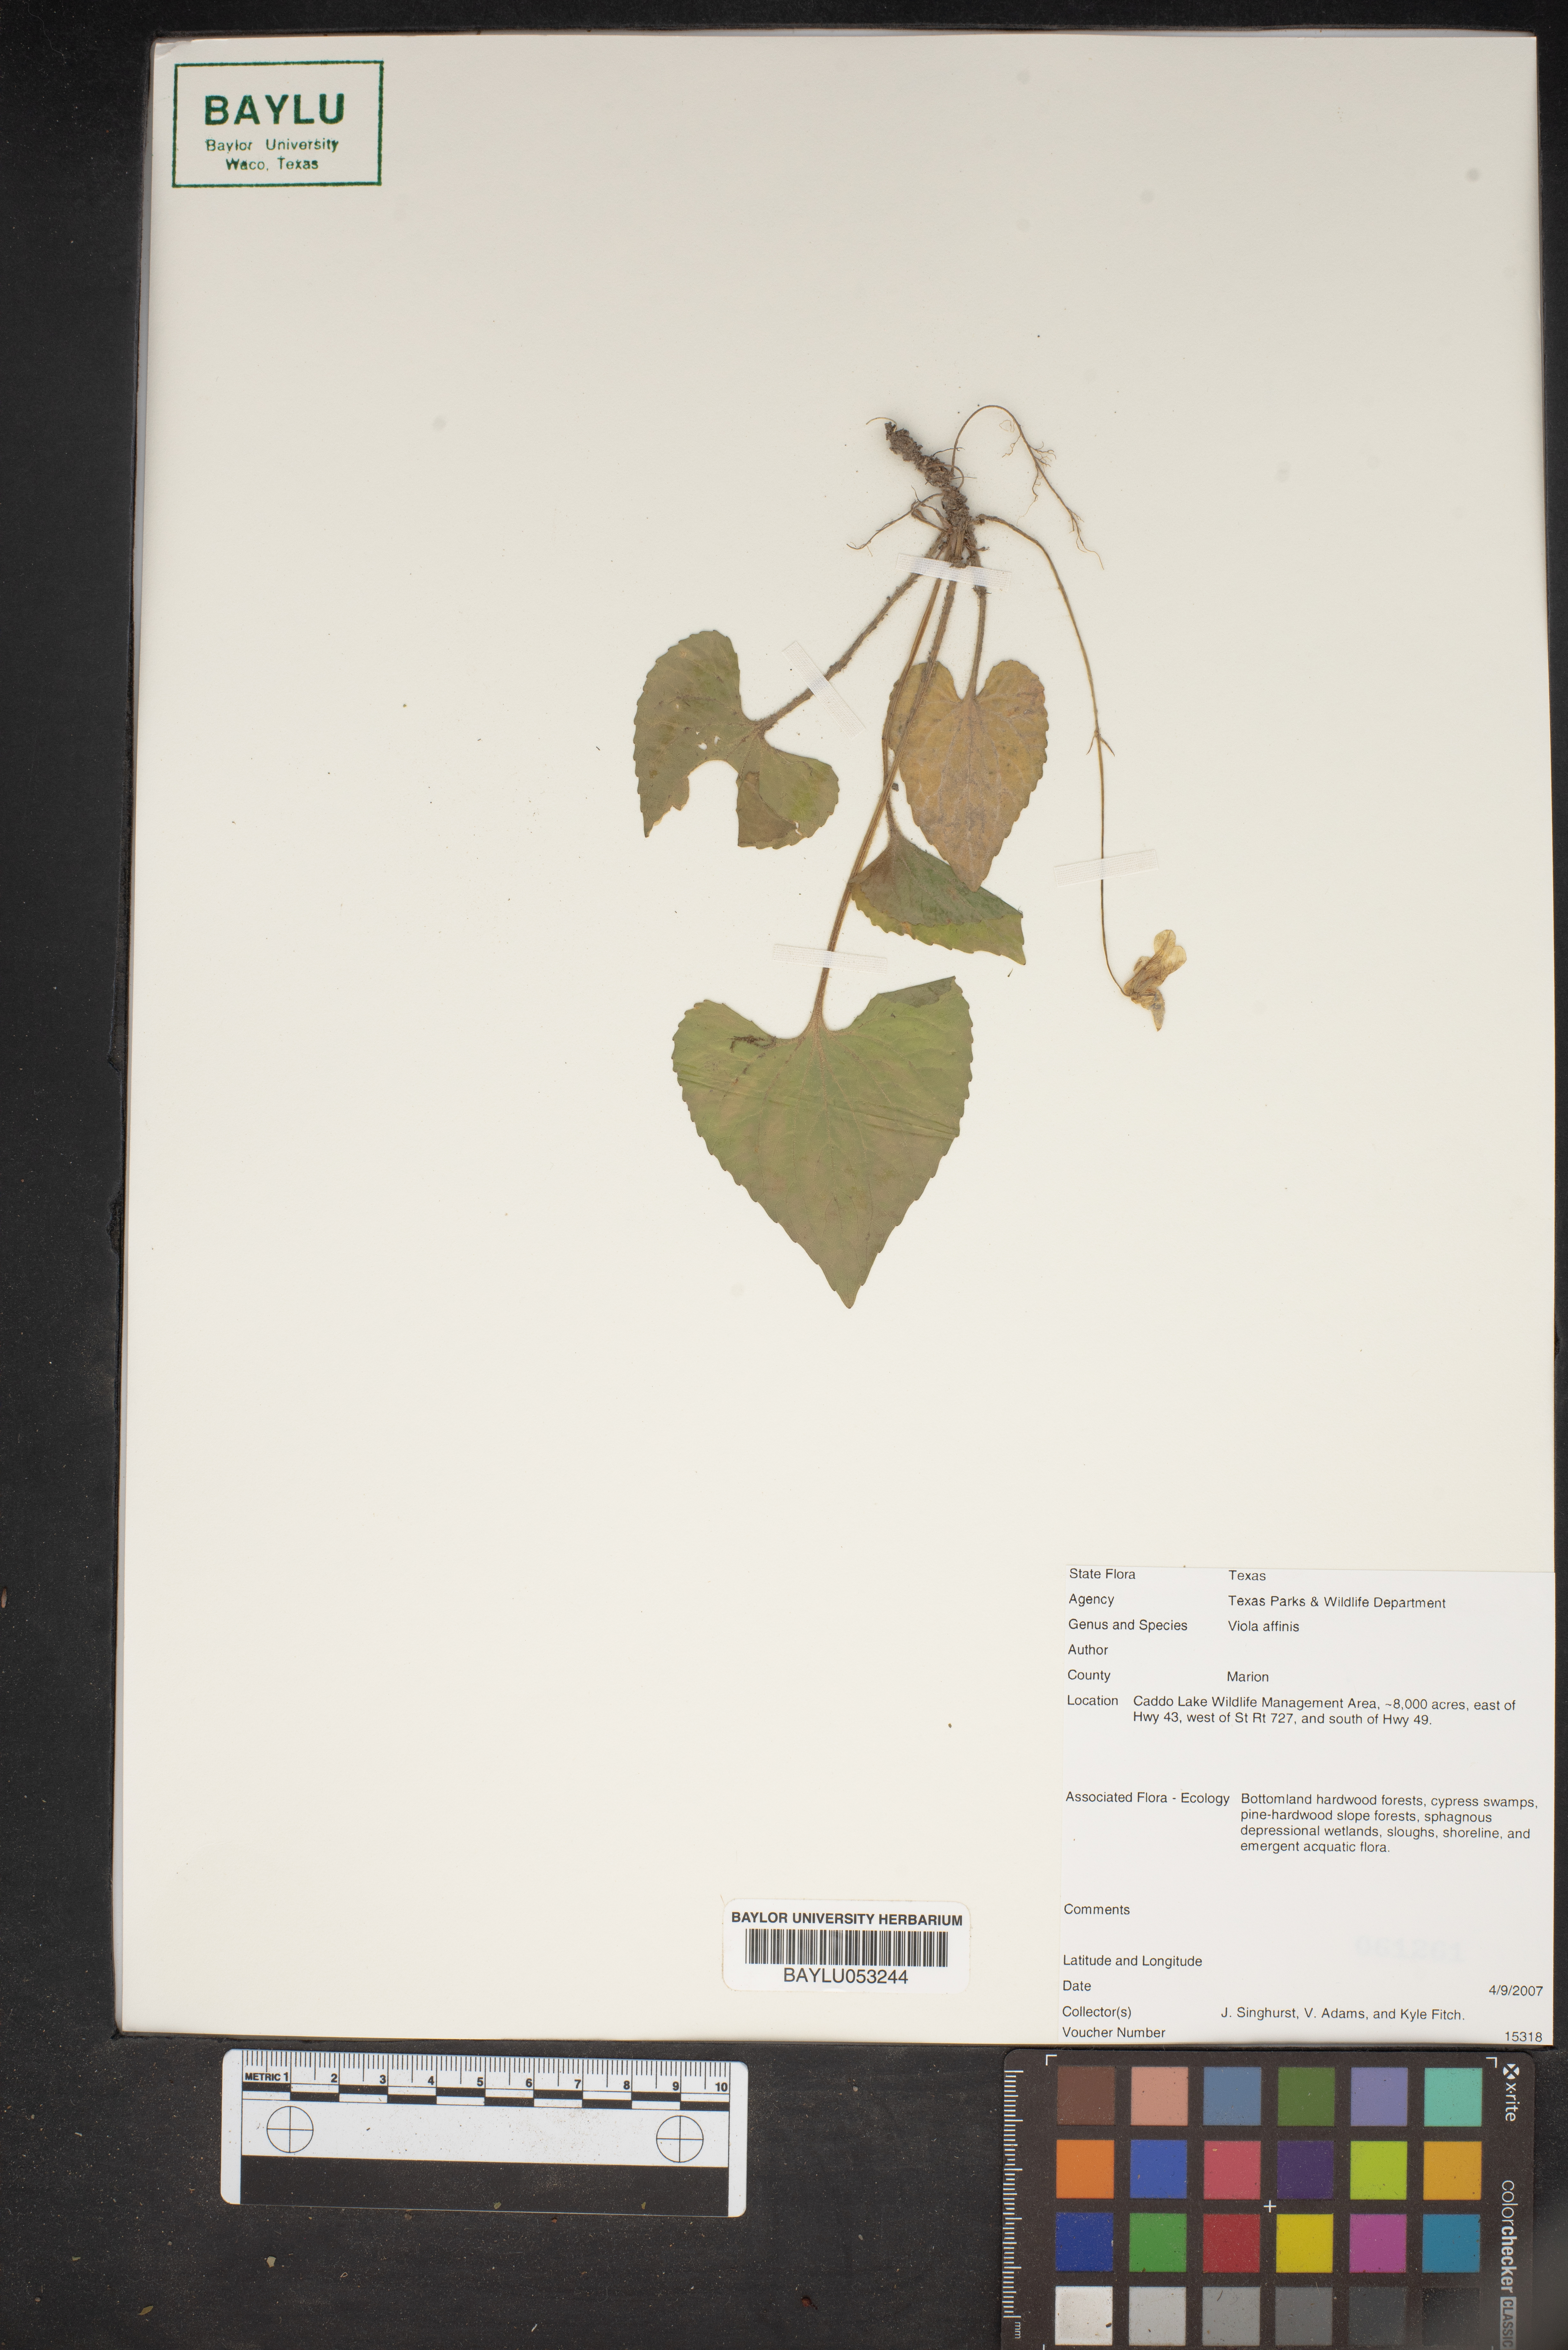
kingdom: Plantae
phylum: Tracheophyta
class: Magnoliopsida
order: Malpighiales
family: Violaceae
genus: Viola
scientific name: Viola affinis
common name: Leconte's violet
